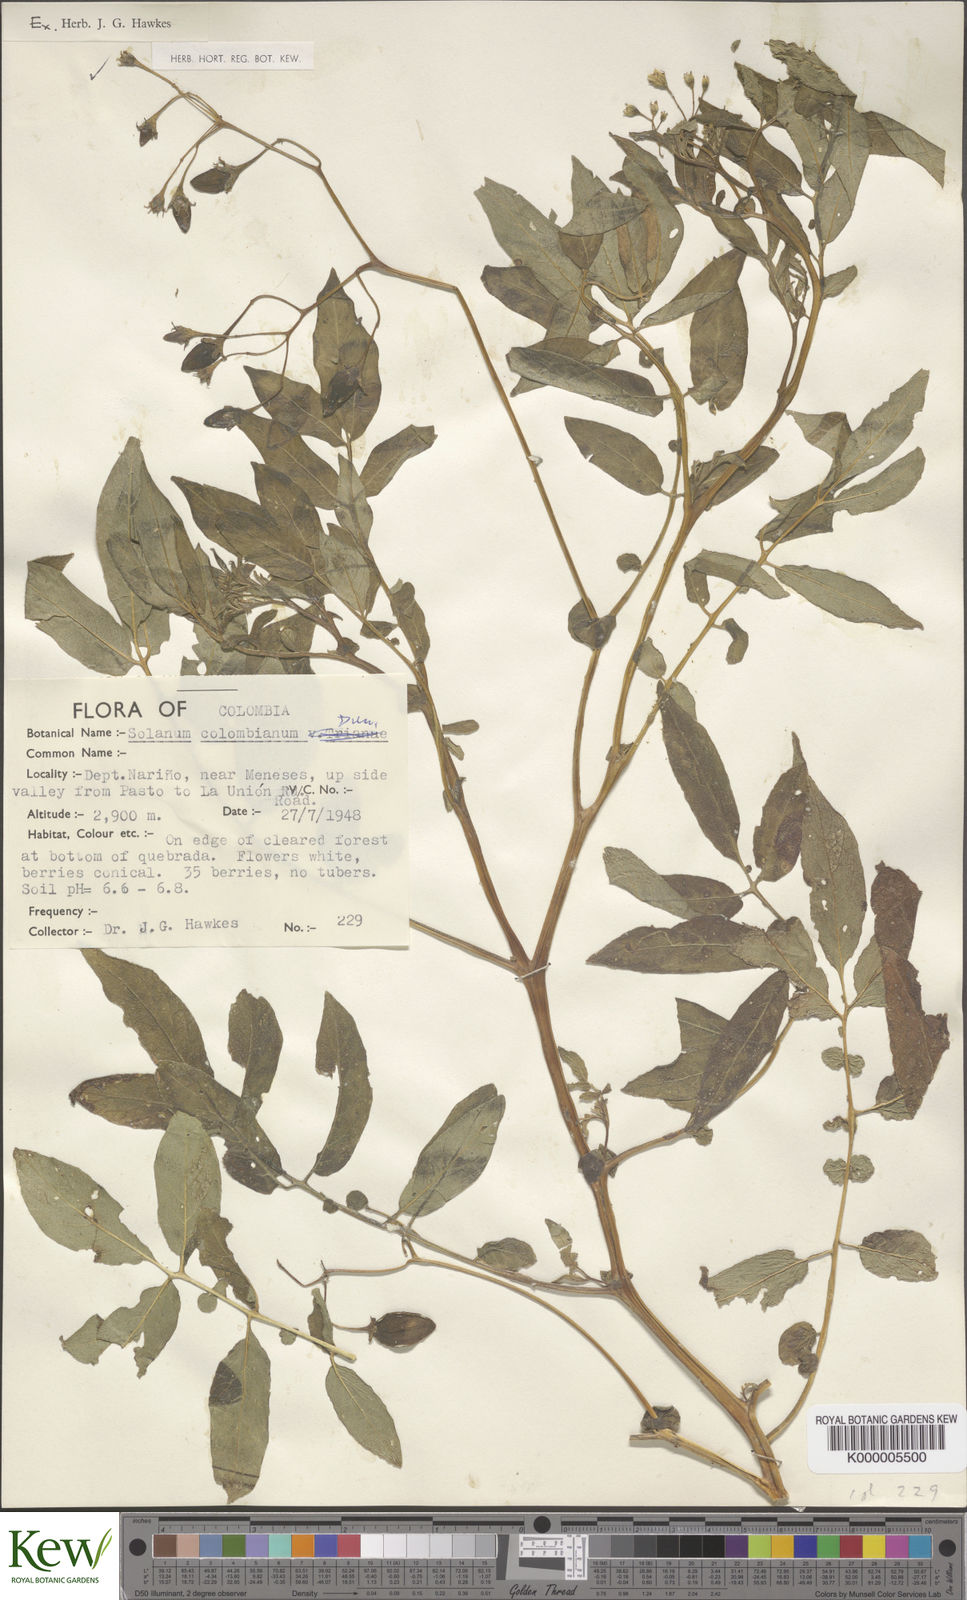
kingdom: Plantae
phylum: Tracheophyta
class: Magnoliopsida
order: Solanales
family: Solanaceae
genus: Solanum
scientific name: Solanum colombianum
